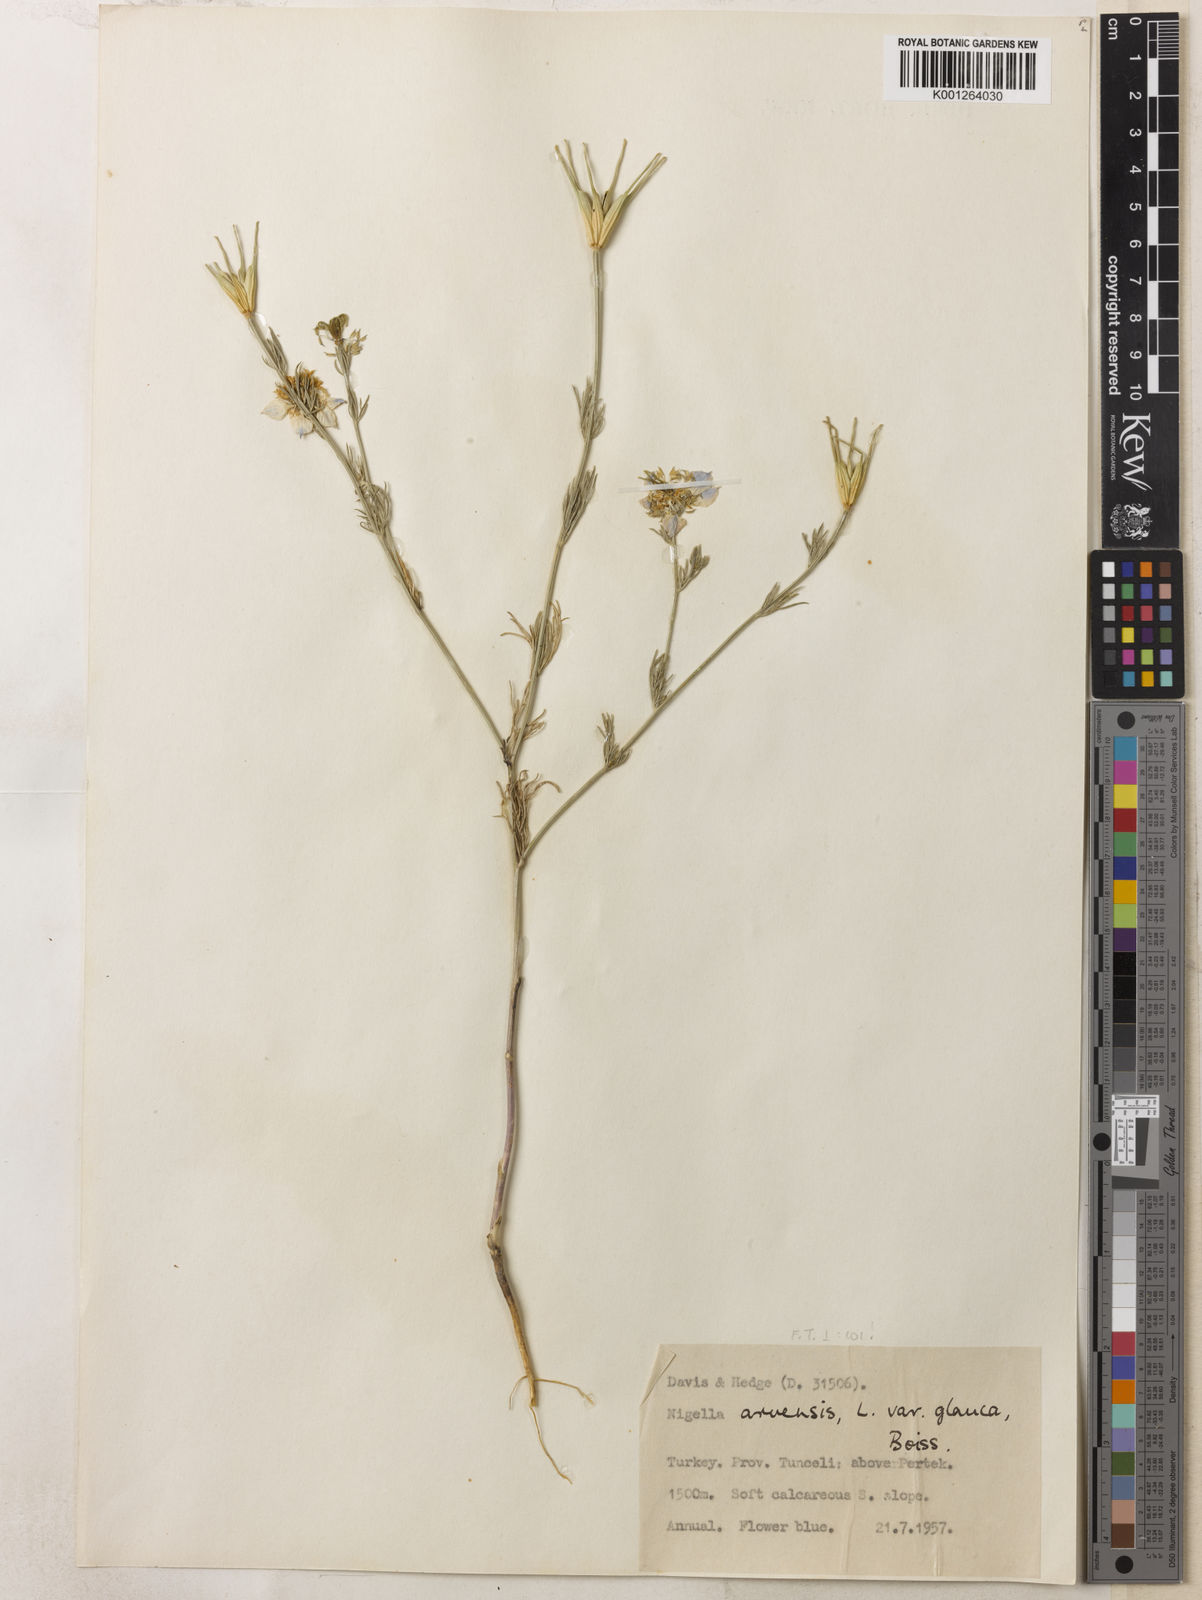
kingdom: Plantae
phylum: Tracheophyta
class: Magnoliopsida
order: Ranunculales
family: Ranunculaceae
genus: Nigella
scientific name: Nigella arvensis
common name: Wild fennel-flower
